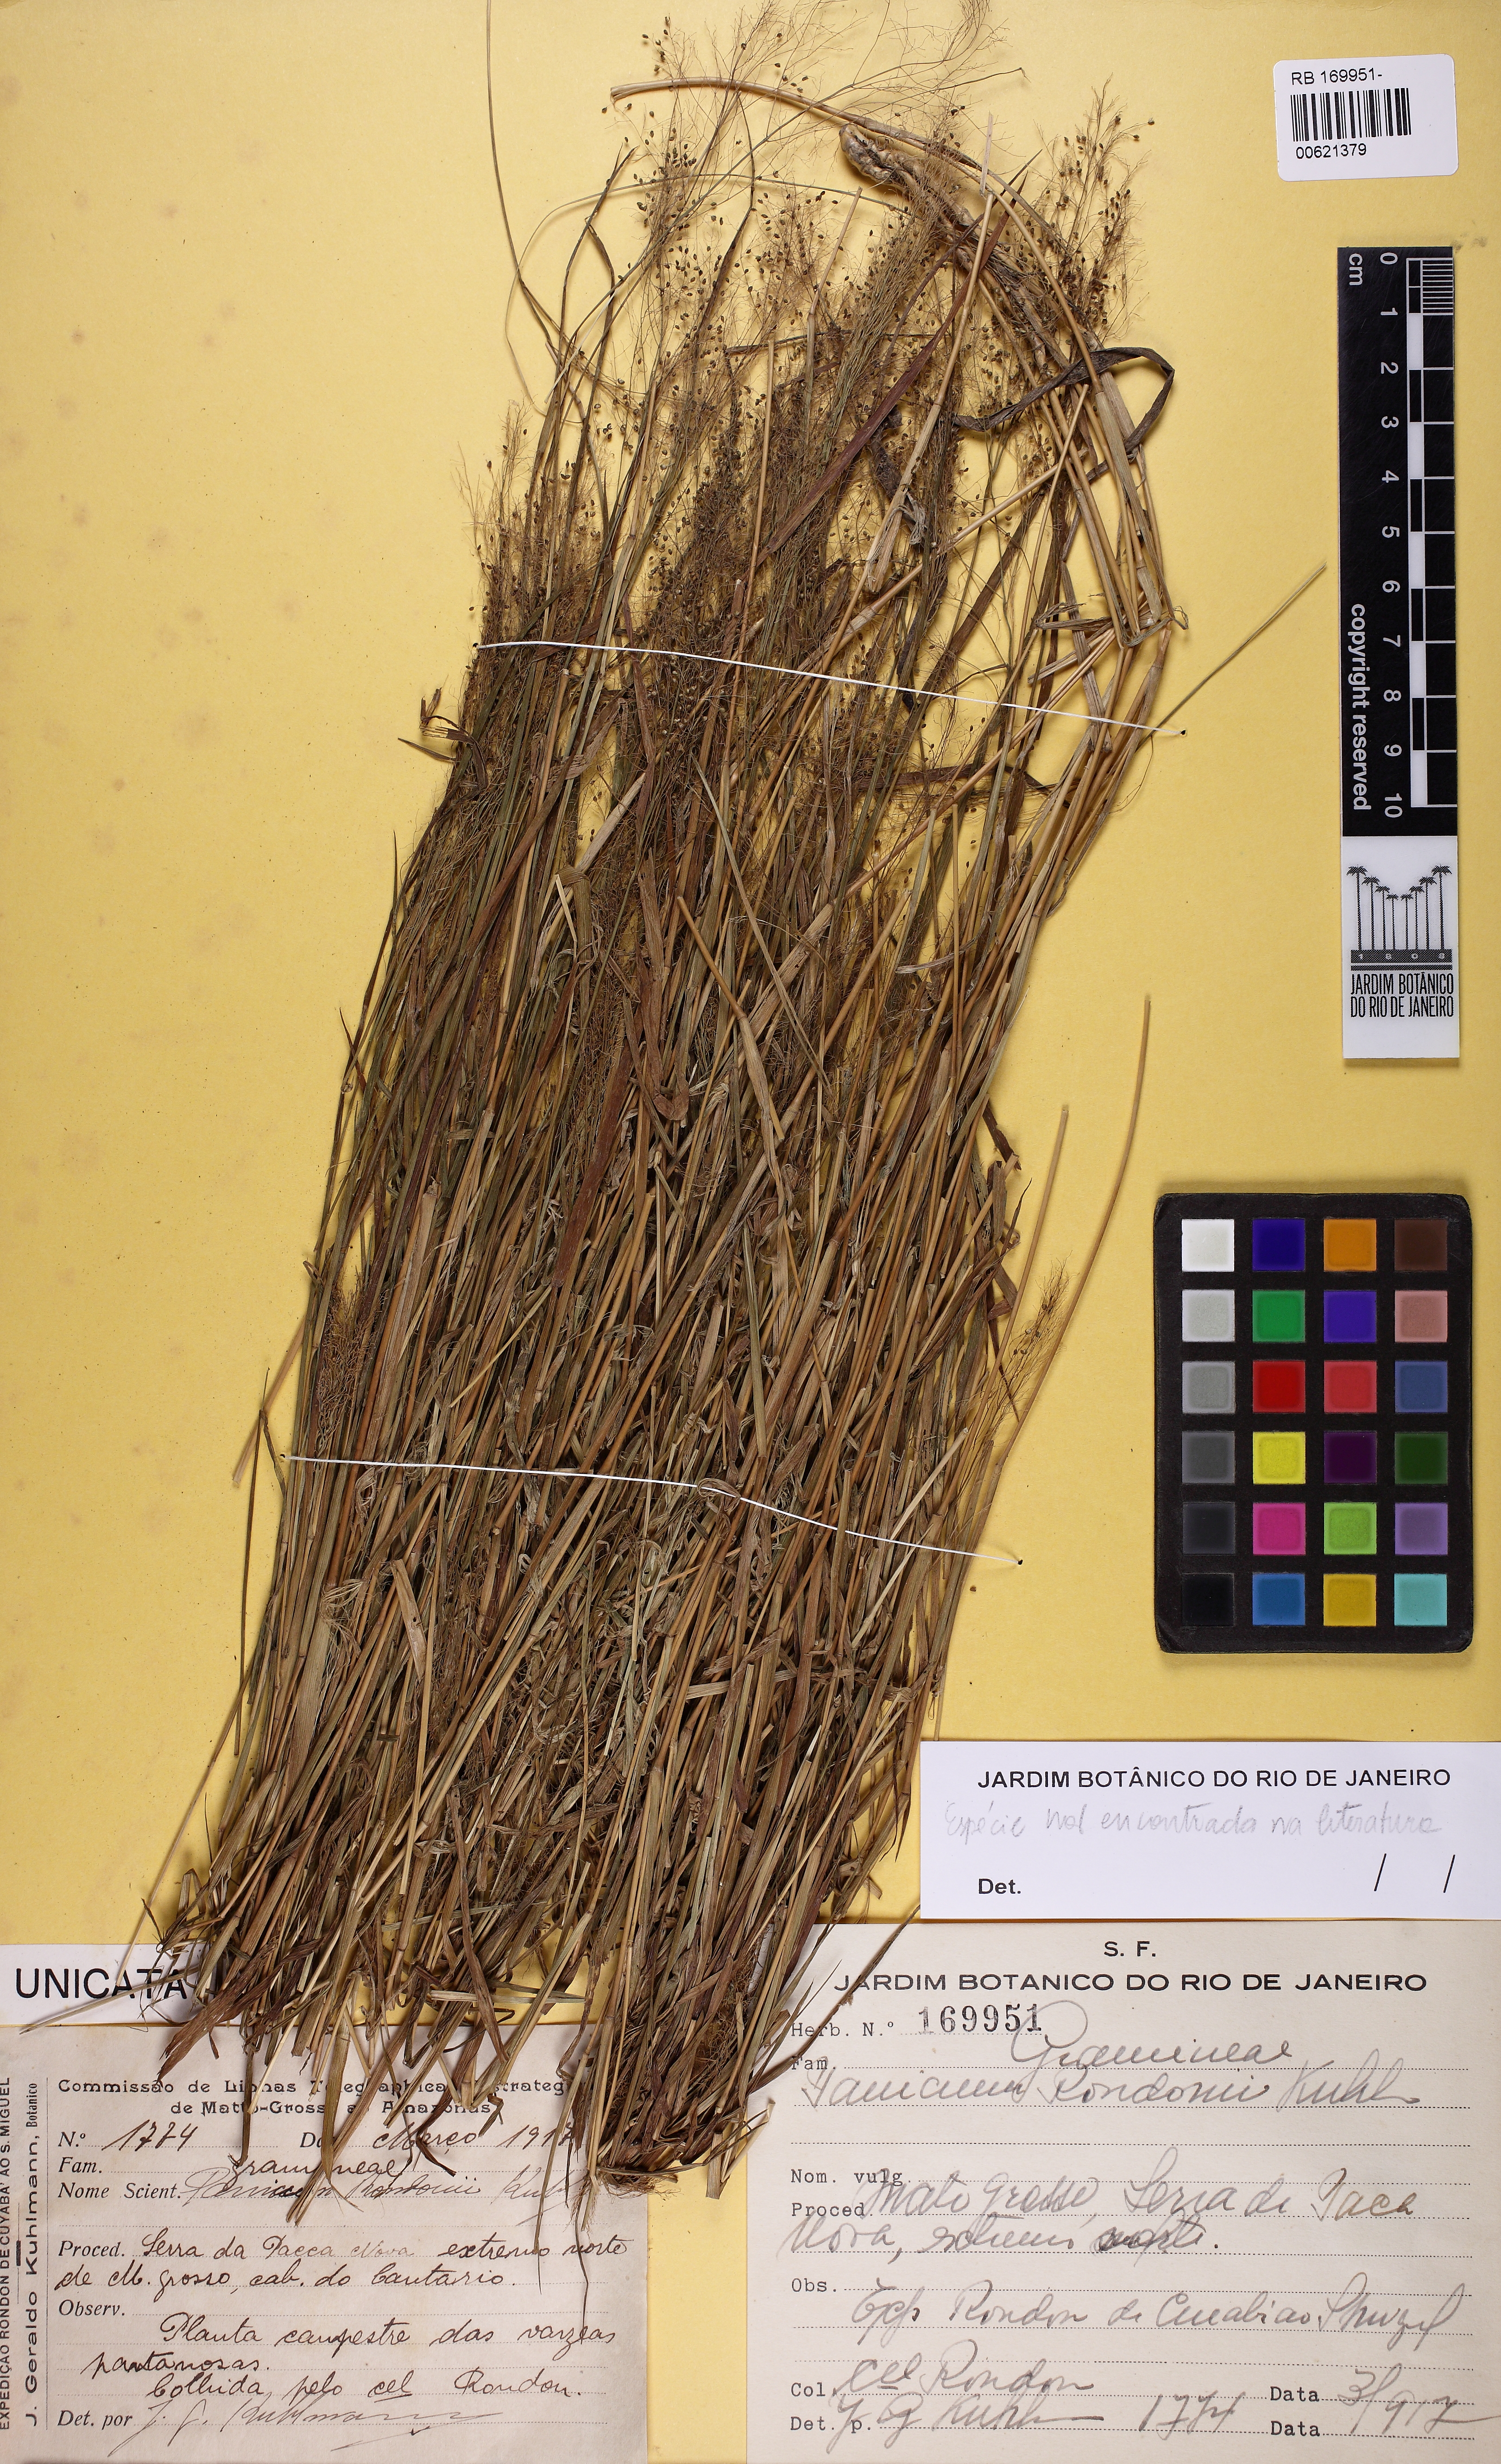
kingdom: Plantae
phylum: Tracheophyta
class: Liliopsida
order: Poales
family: Poaceae
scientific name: Poaceae
